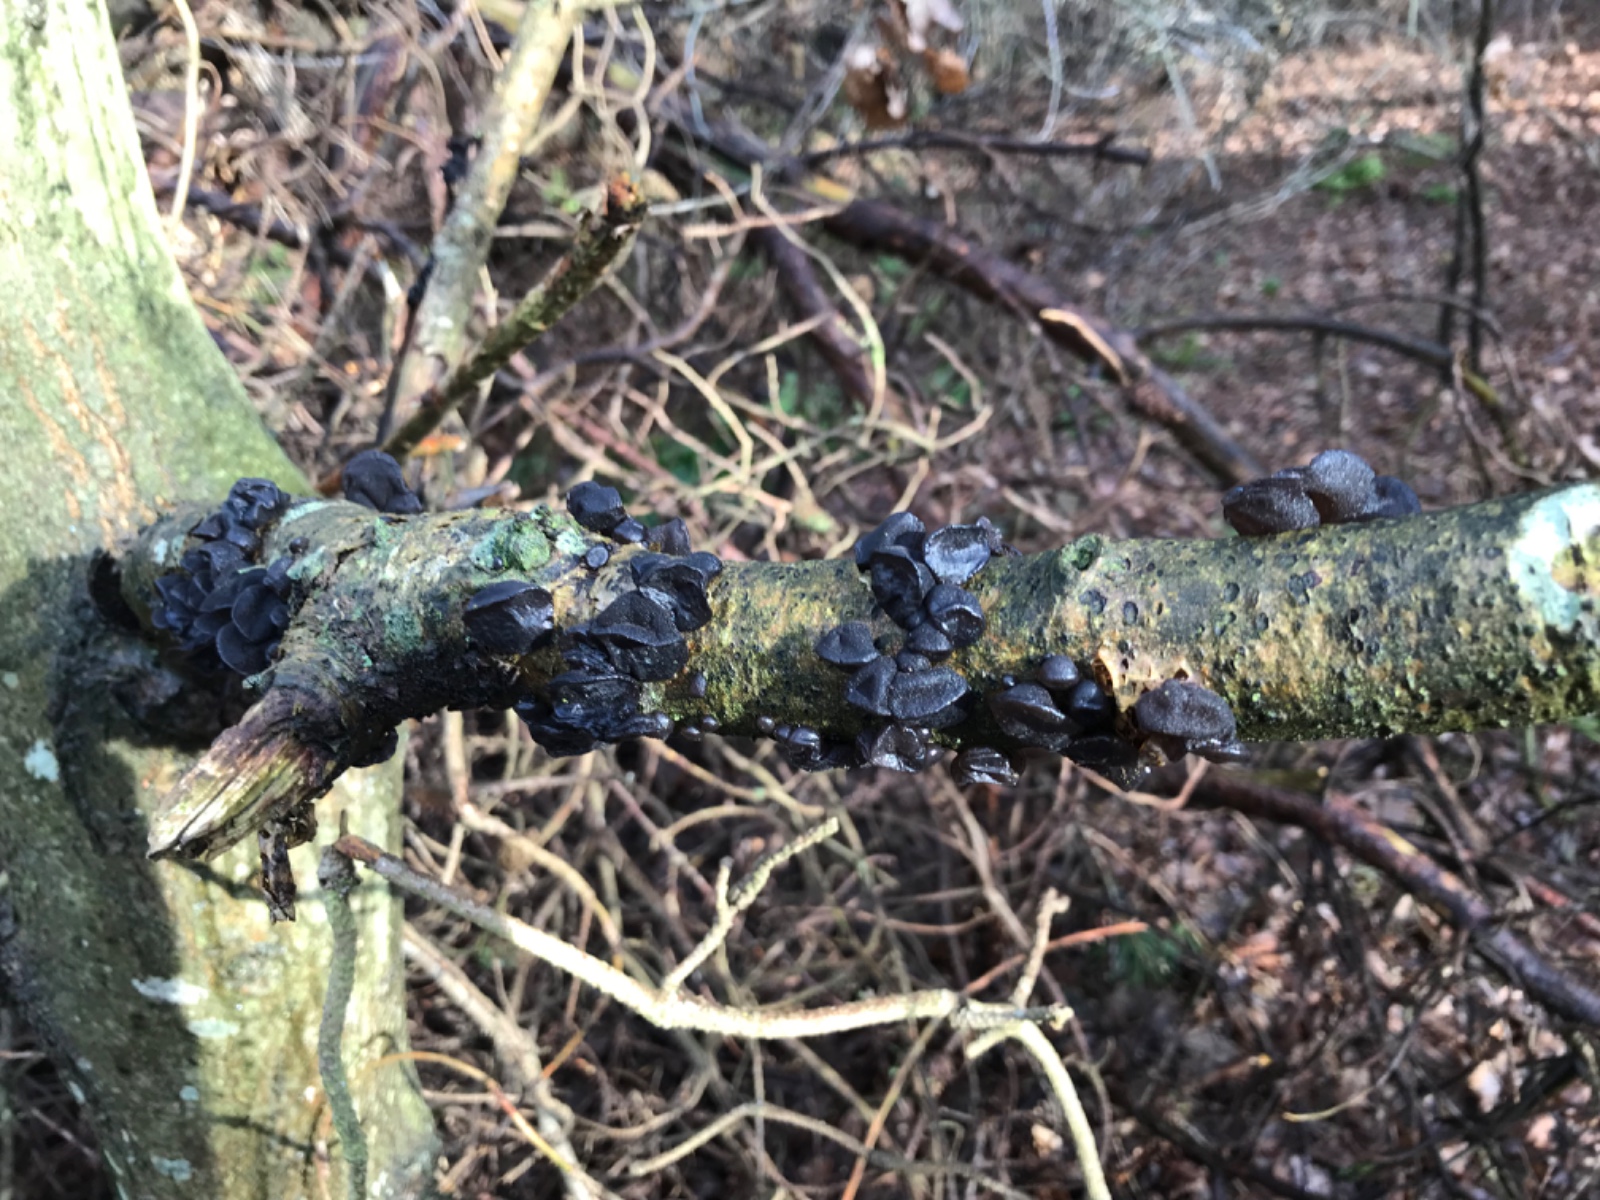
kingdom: Fungi
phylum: Basidiomycota
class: Agaricomycetes
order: Auriculariales
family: Auriculariaceae
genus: Exidia
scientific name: Exidia glandulosa
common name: ege-bævretop
